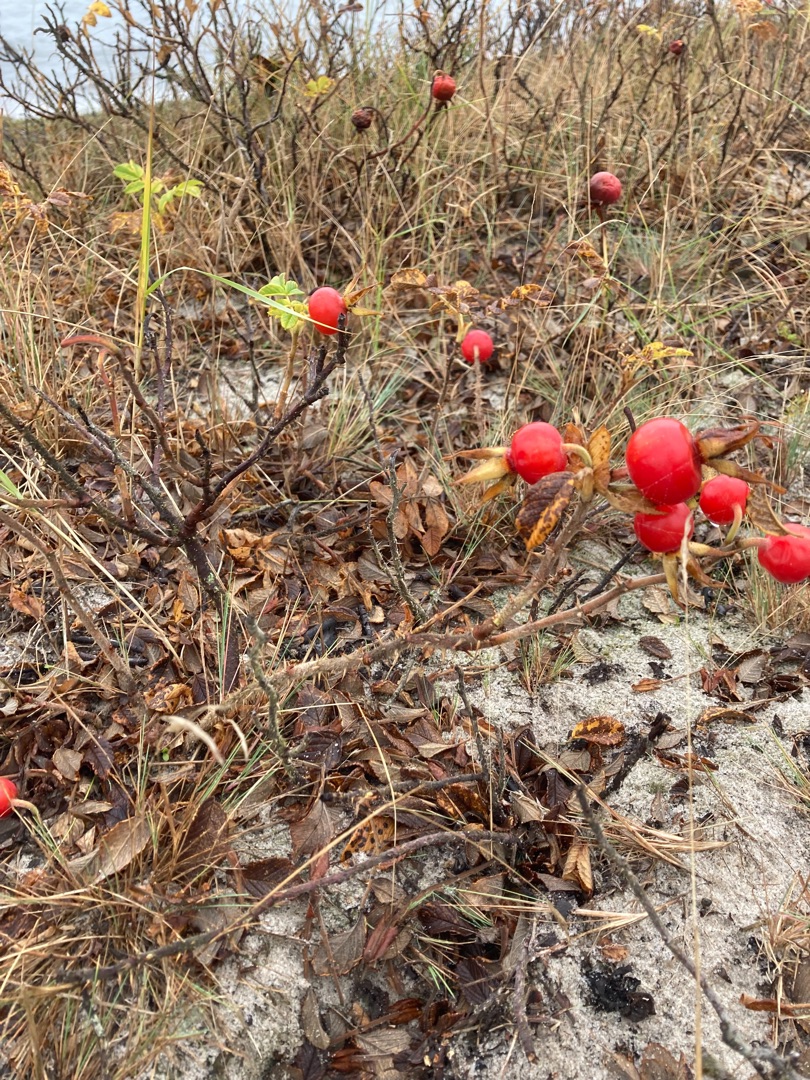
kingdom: Plantae
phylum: Tracheophyta
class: Magnoliopsida
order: Rosales
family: Rosaceae
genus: Rosa
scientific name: Rosa rugosa
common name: Rynket rose
